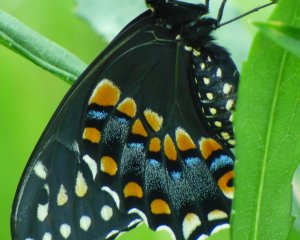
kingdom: Animalia
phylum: Arthropoda
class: Insecta
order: Lepidoptera
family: Papilionidae
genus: Papilio
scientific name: Papilio polyxenes
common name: Black Swallowtail
